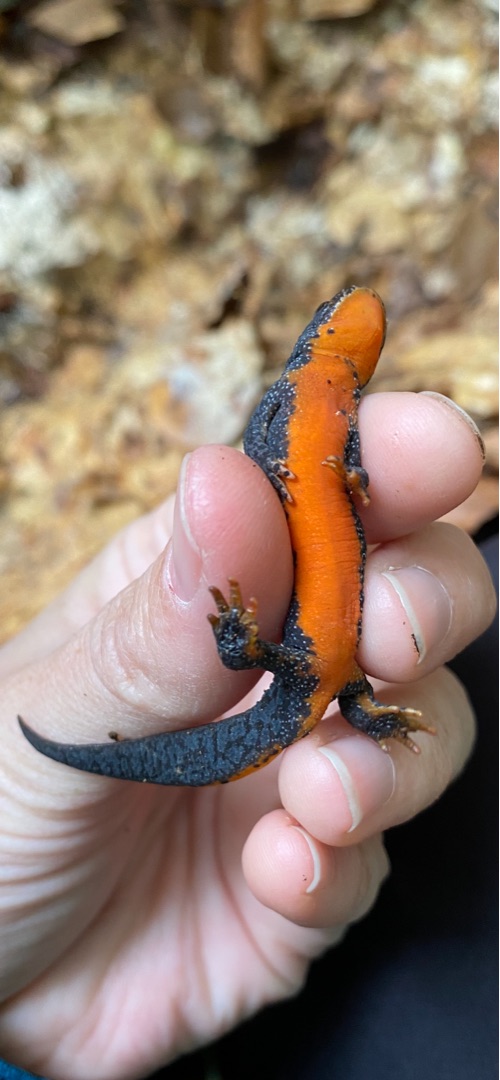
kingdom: Animalia
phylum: Chordata
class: Amphibia
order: Caudata
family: Salamandridae
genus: Ichthyosaura
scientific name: Ichthyosaura alpestris
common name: Bjergsalamander
